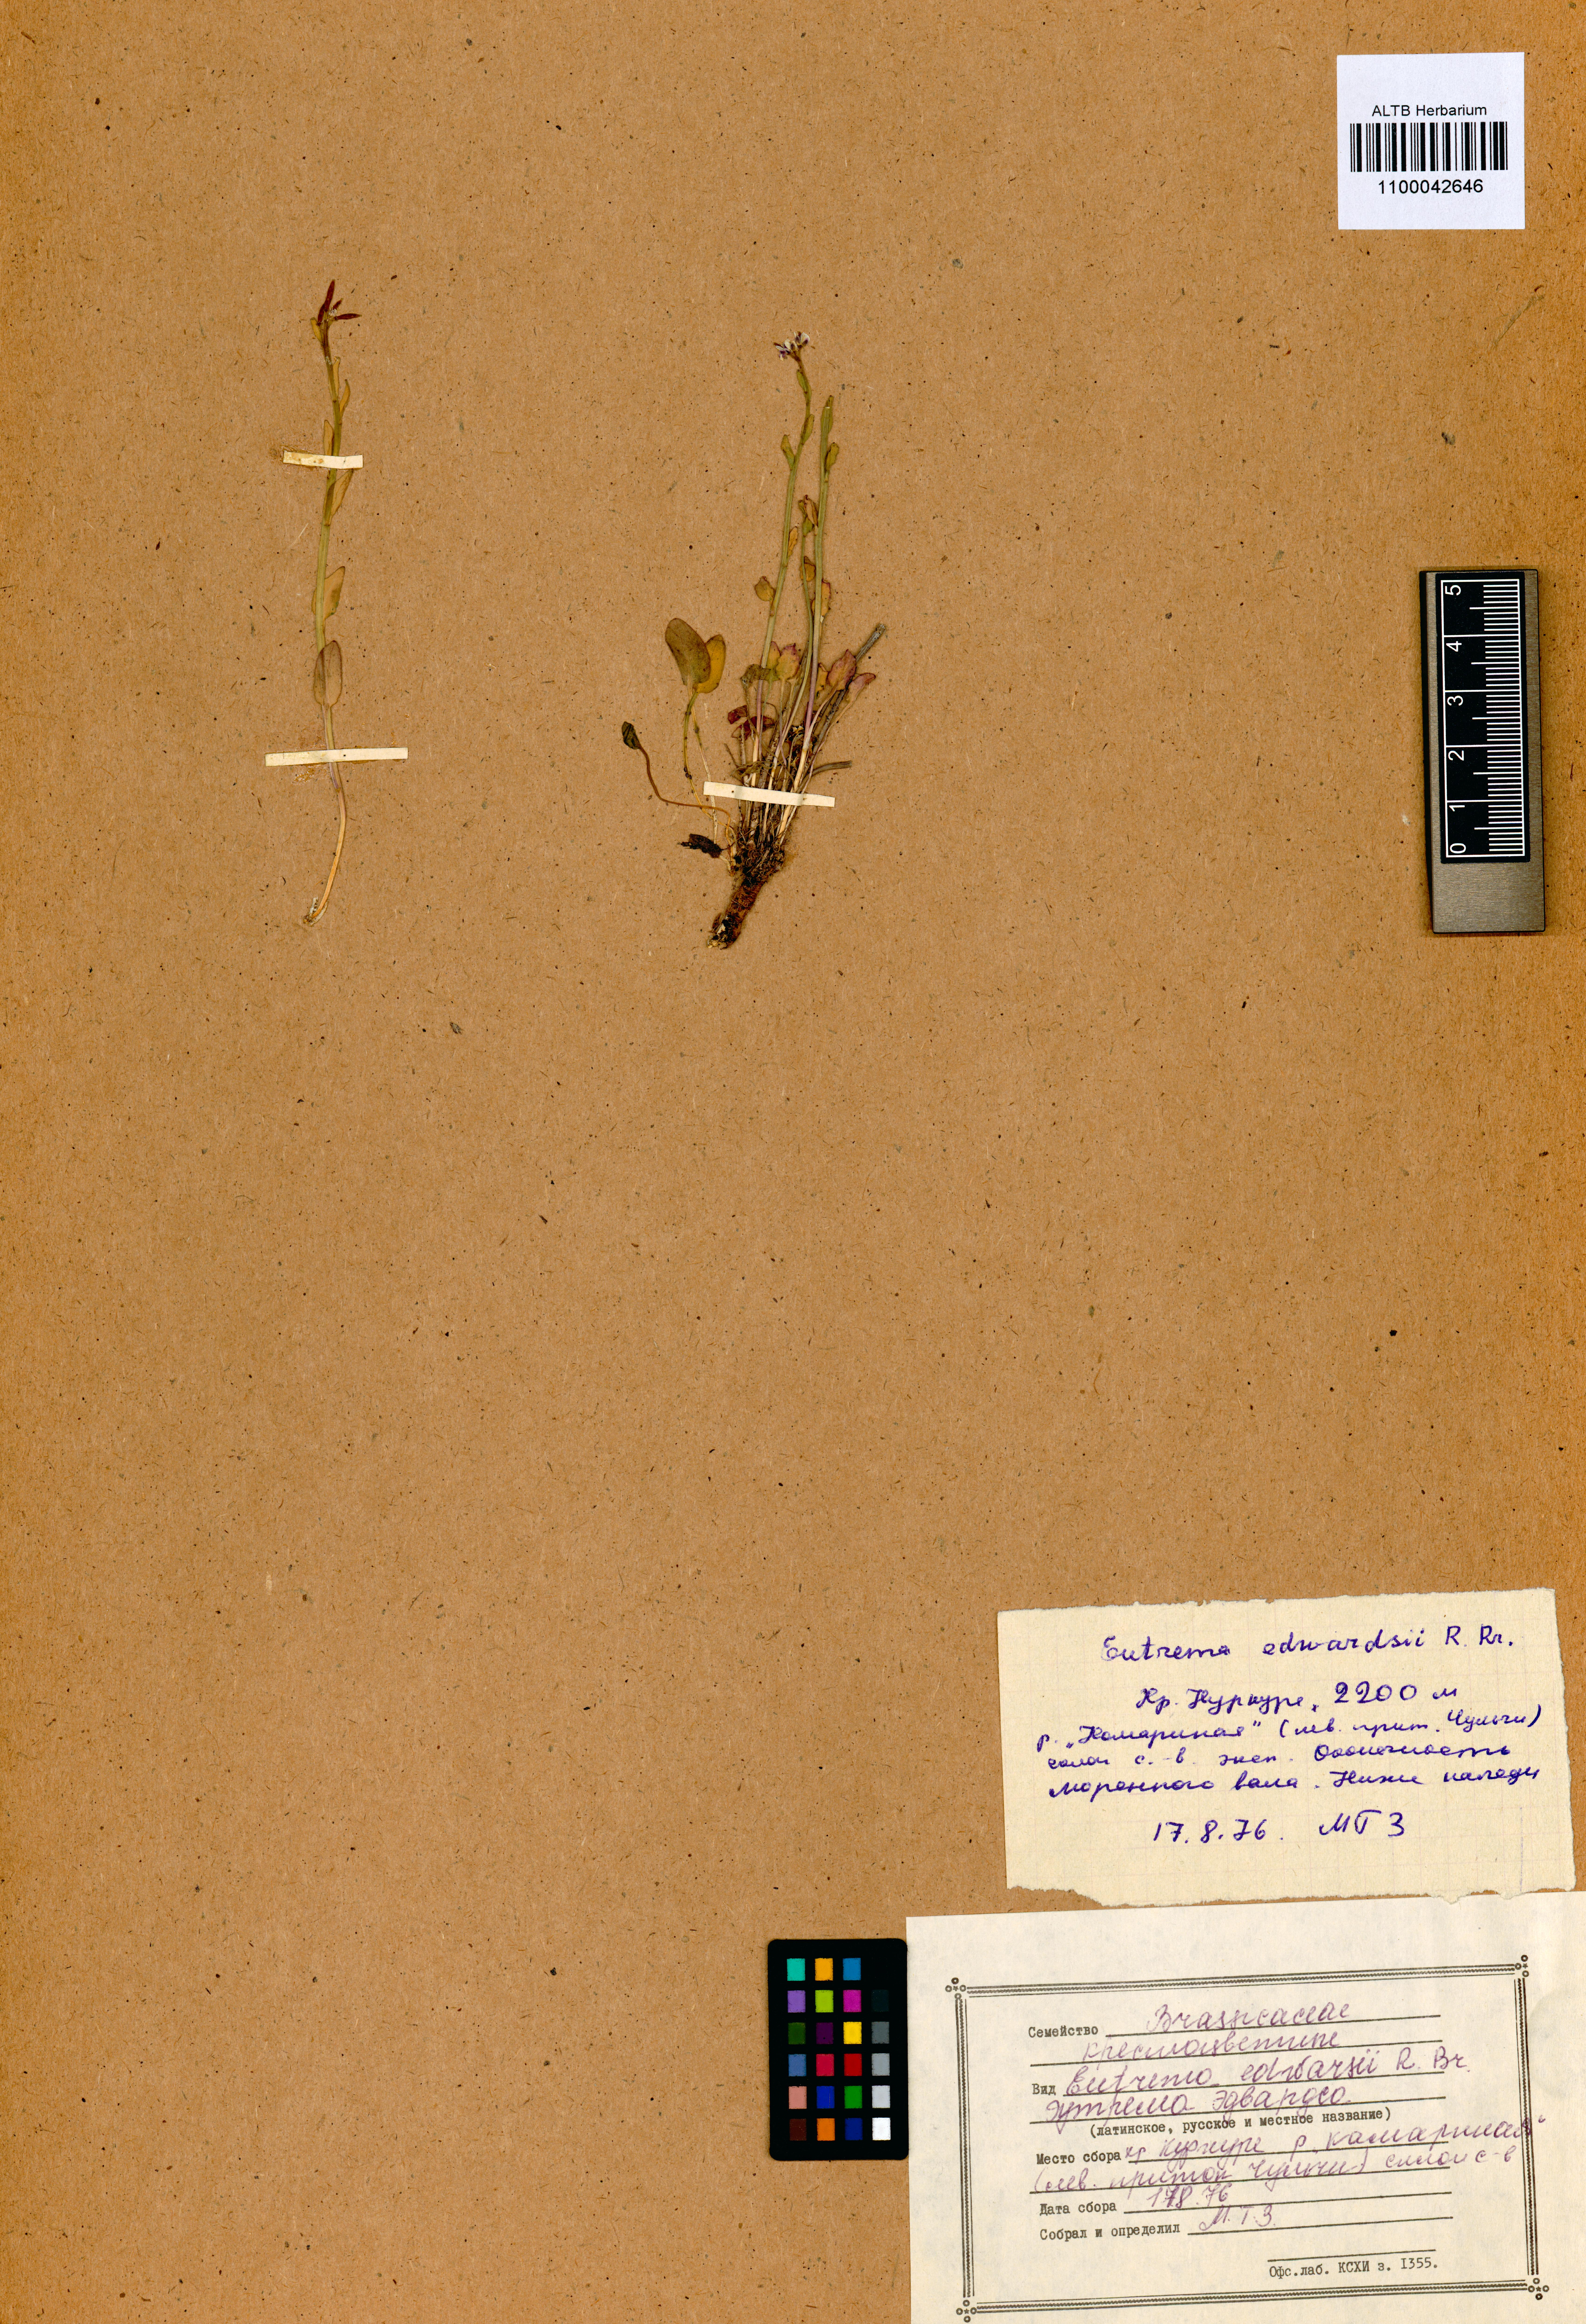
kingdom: Plantae
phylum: Tracheophyta
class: Magnoliopsida
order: Brassicales
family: Brassicaceae
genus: Eutrema
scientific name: Eutrema edwardsii
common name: Penland alpine fen mustard
